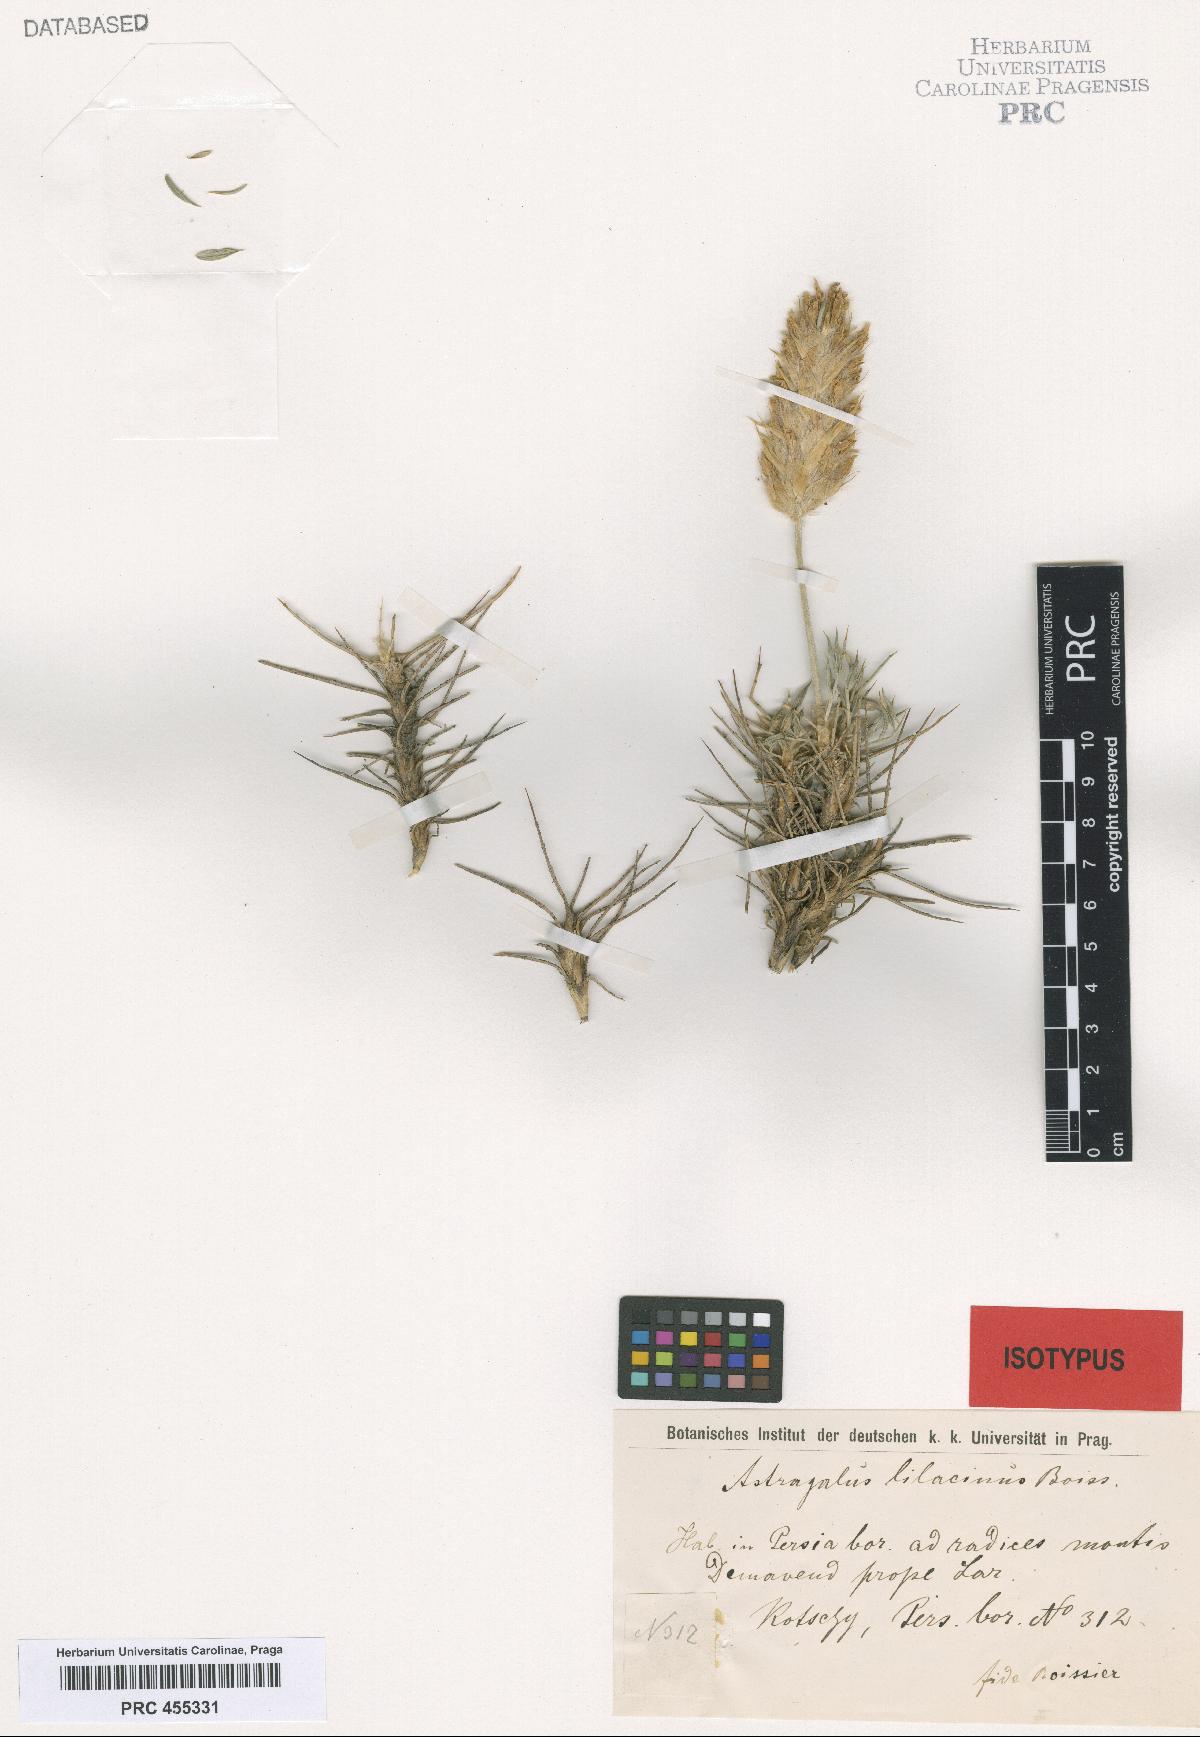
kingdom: Plantae
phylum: Tracheophyta
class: Magnoliopsida
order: Fabales
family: Fabaceae
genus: Astragalus
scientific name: Astragalus lilacinus
